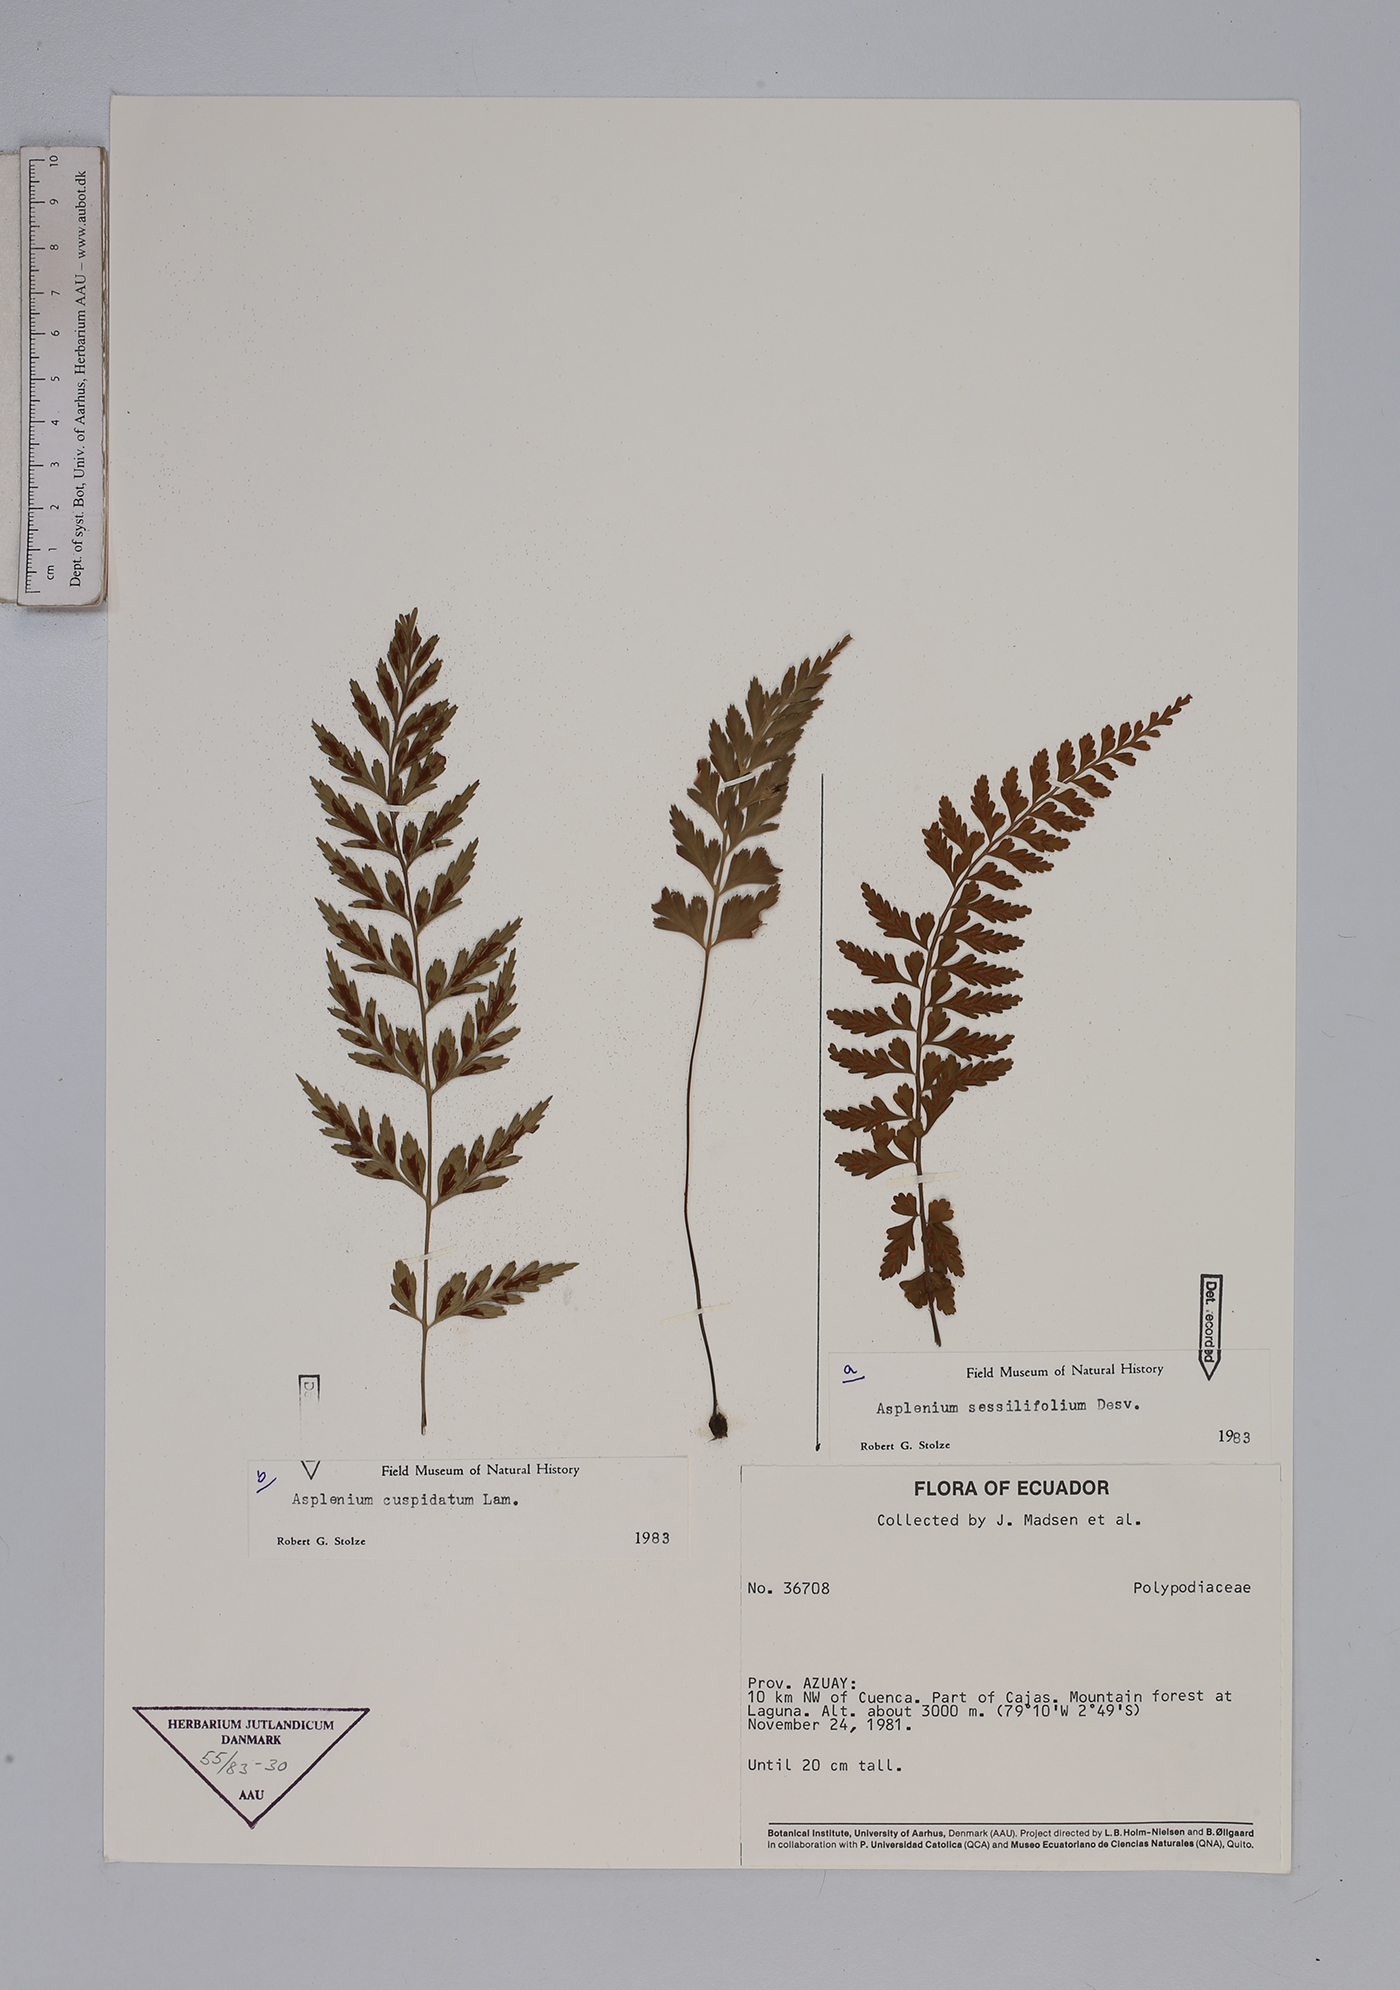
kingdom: Plantae
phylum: Tracheophyta
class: Polypodiopsida
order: Polypodiales
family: Aspleniaceae
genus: Asplenium
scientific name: Asplenium cuspidatum
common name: Eared spleenwort
